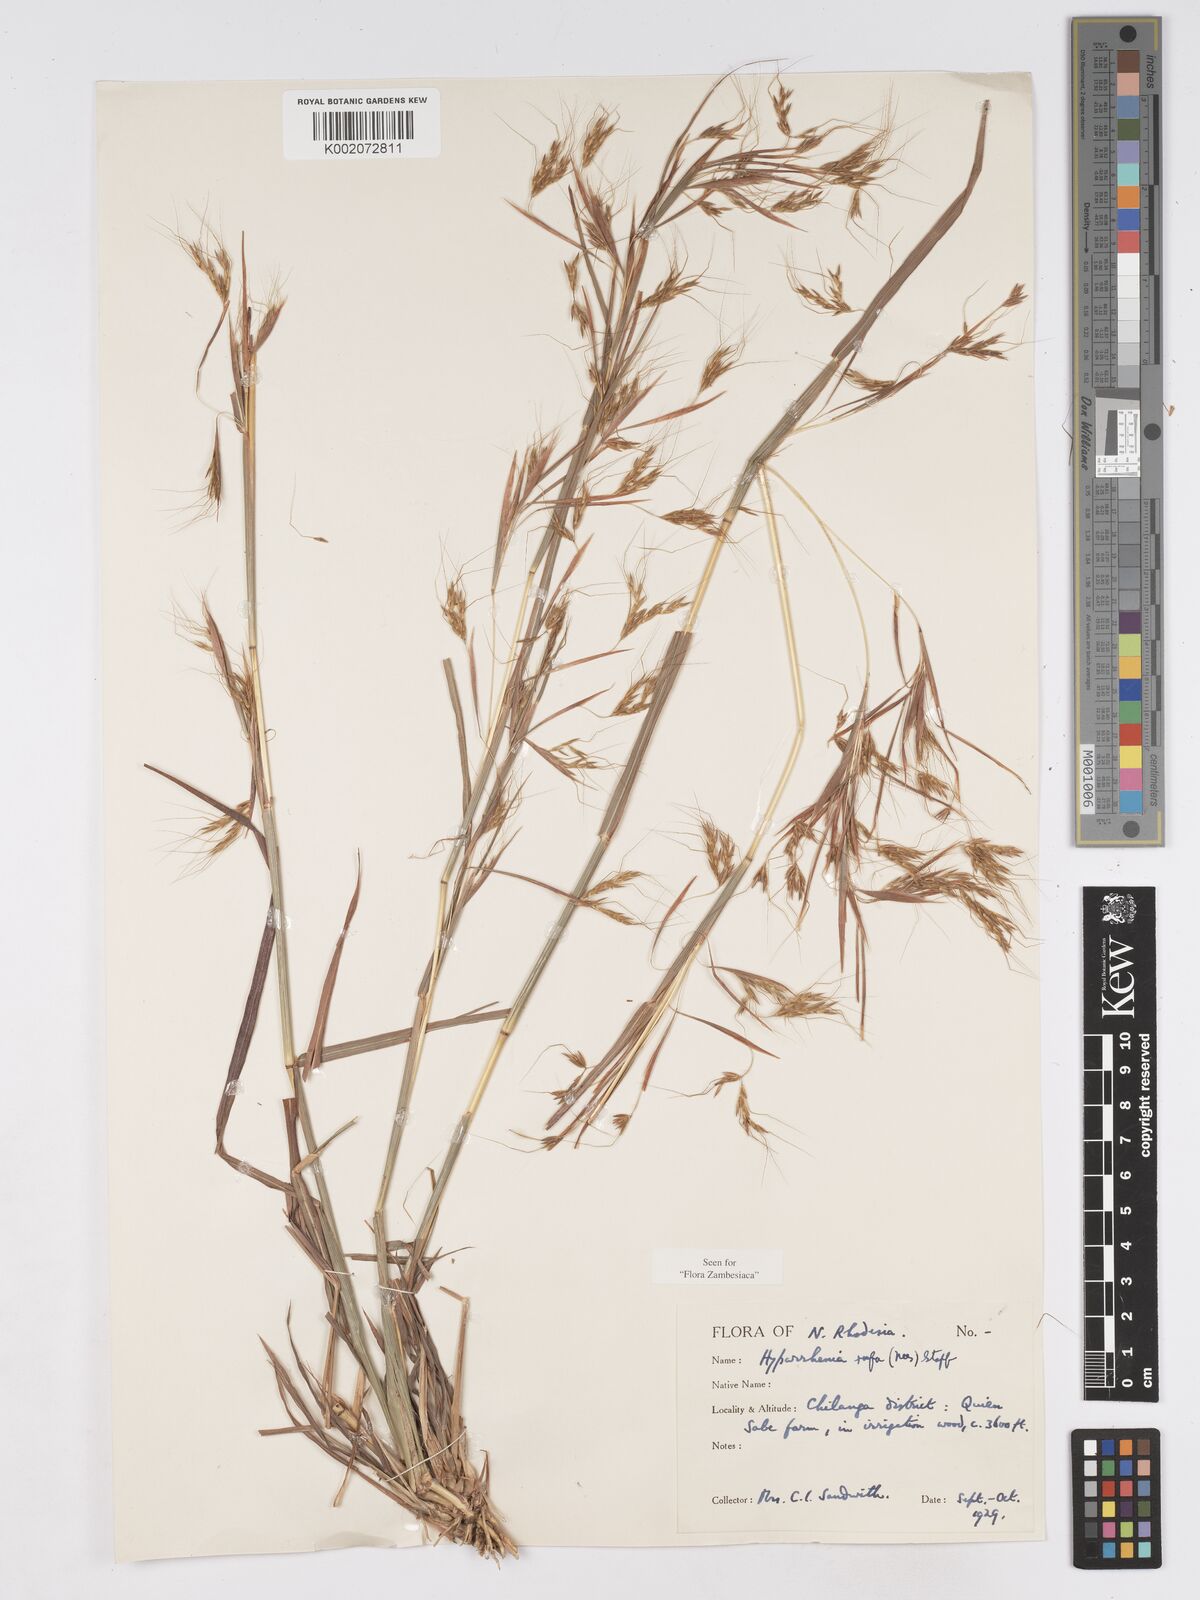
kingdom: Plantae
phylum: Tracheophyta
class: Liliopsida
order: Poales
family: Poaceae
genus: Hyparrhenia
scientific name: Hyparrhenia rufa
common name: Jaraguagrass
